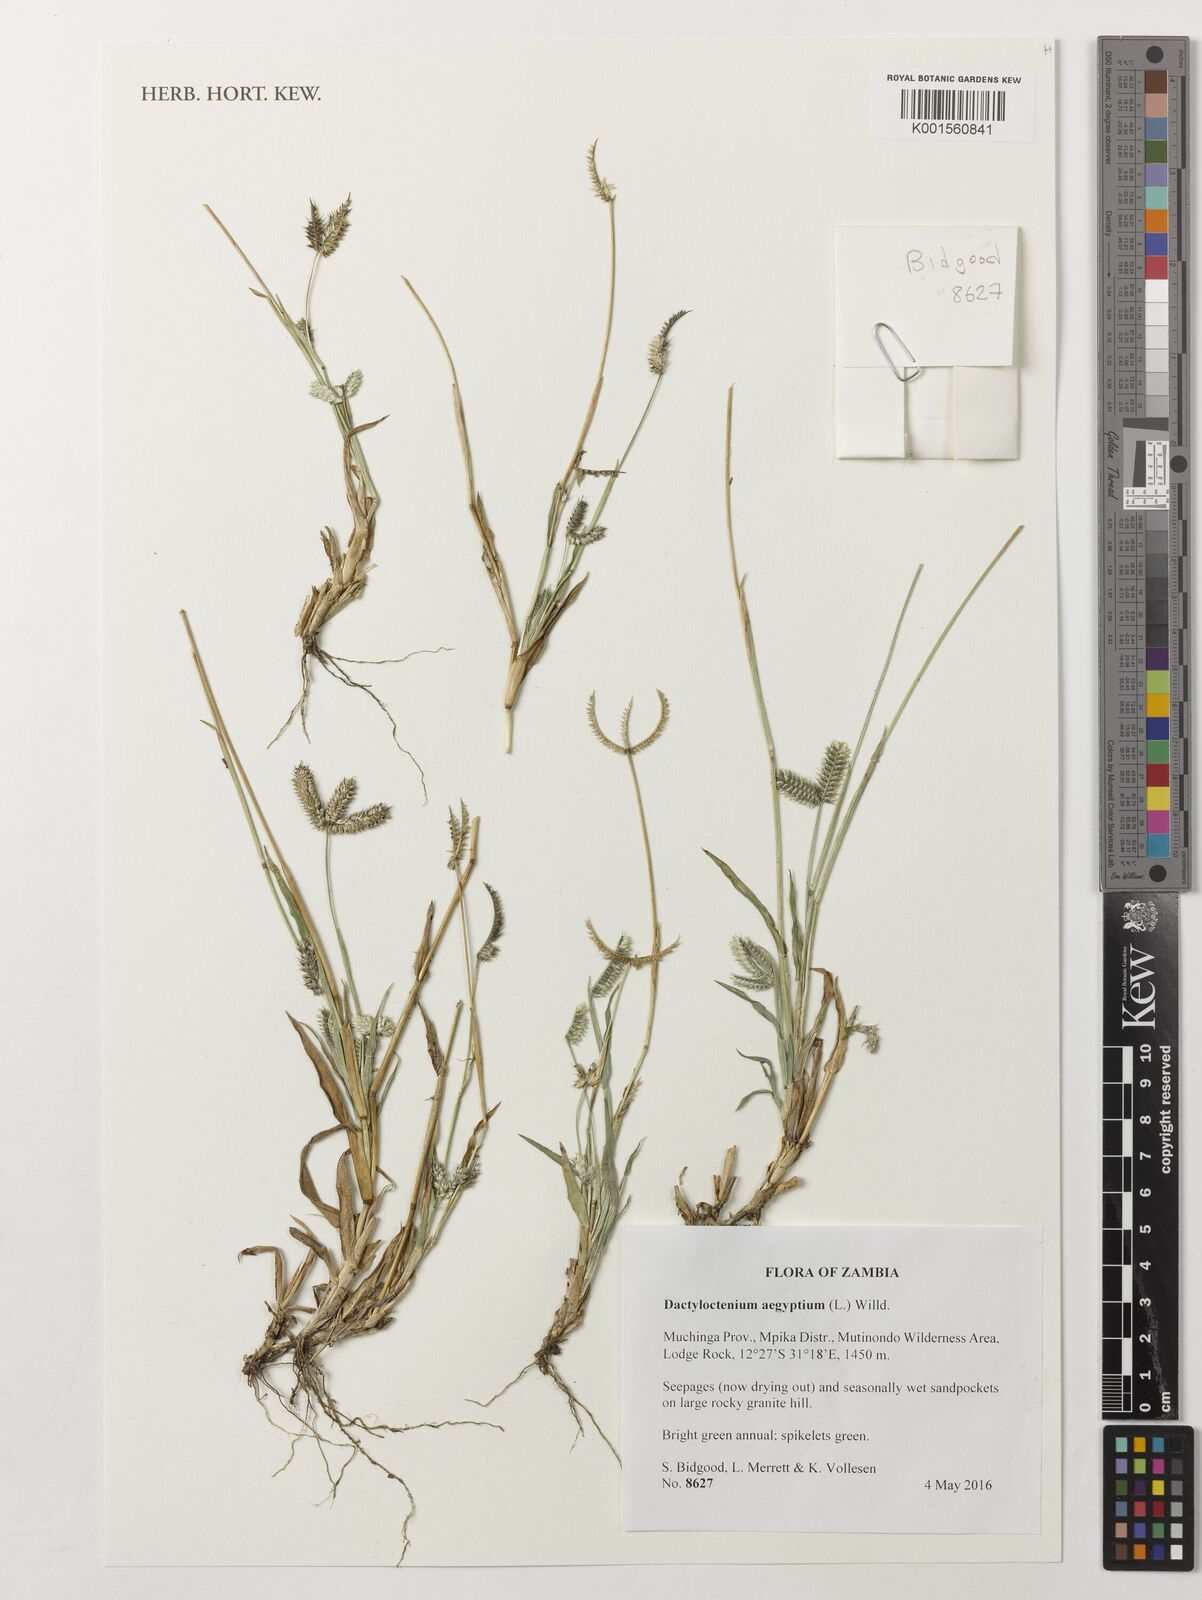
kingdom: Plantae
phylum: Tracheophyta
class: Liliopsida
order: Poales
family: Poaceae
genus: Dactyloctenium
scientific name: Dactyloctenium aegyptium
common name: Egyptian grass
